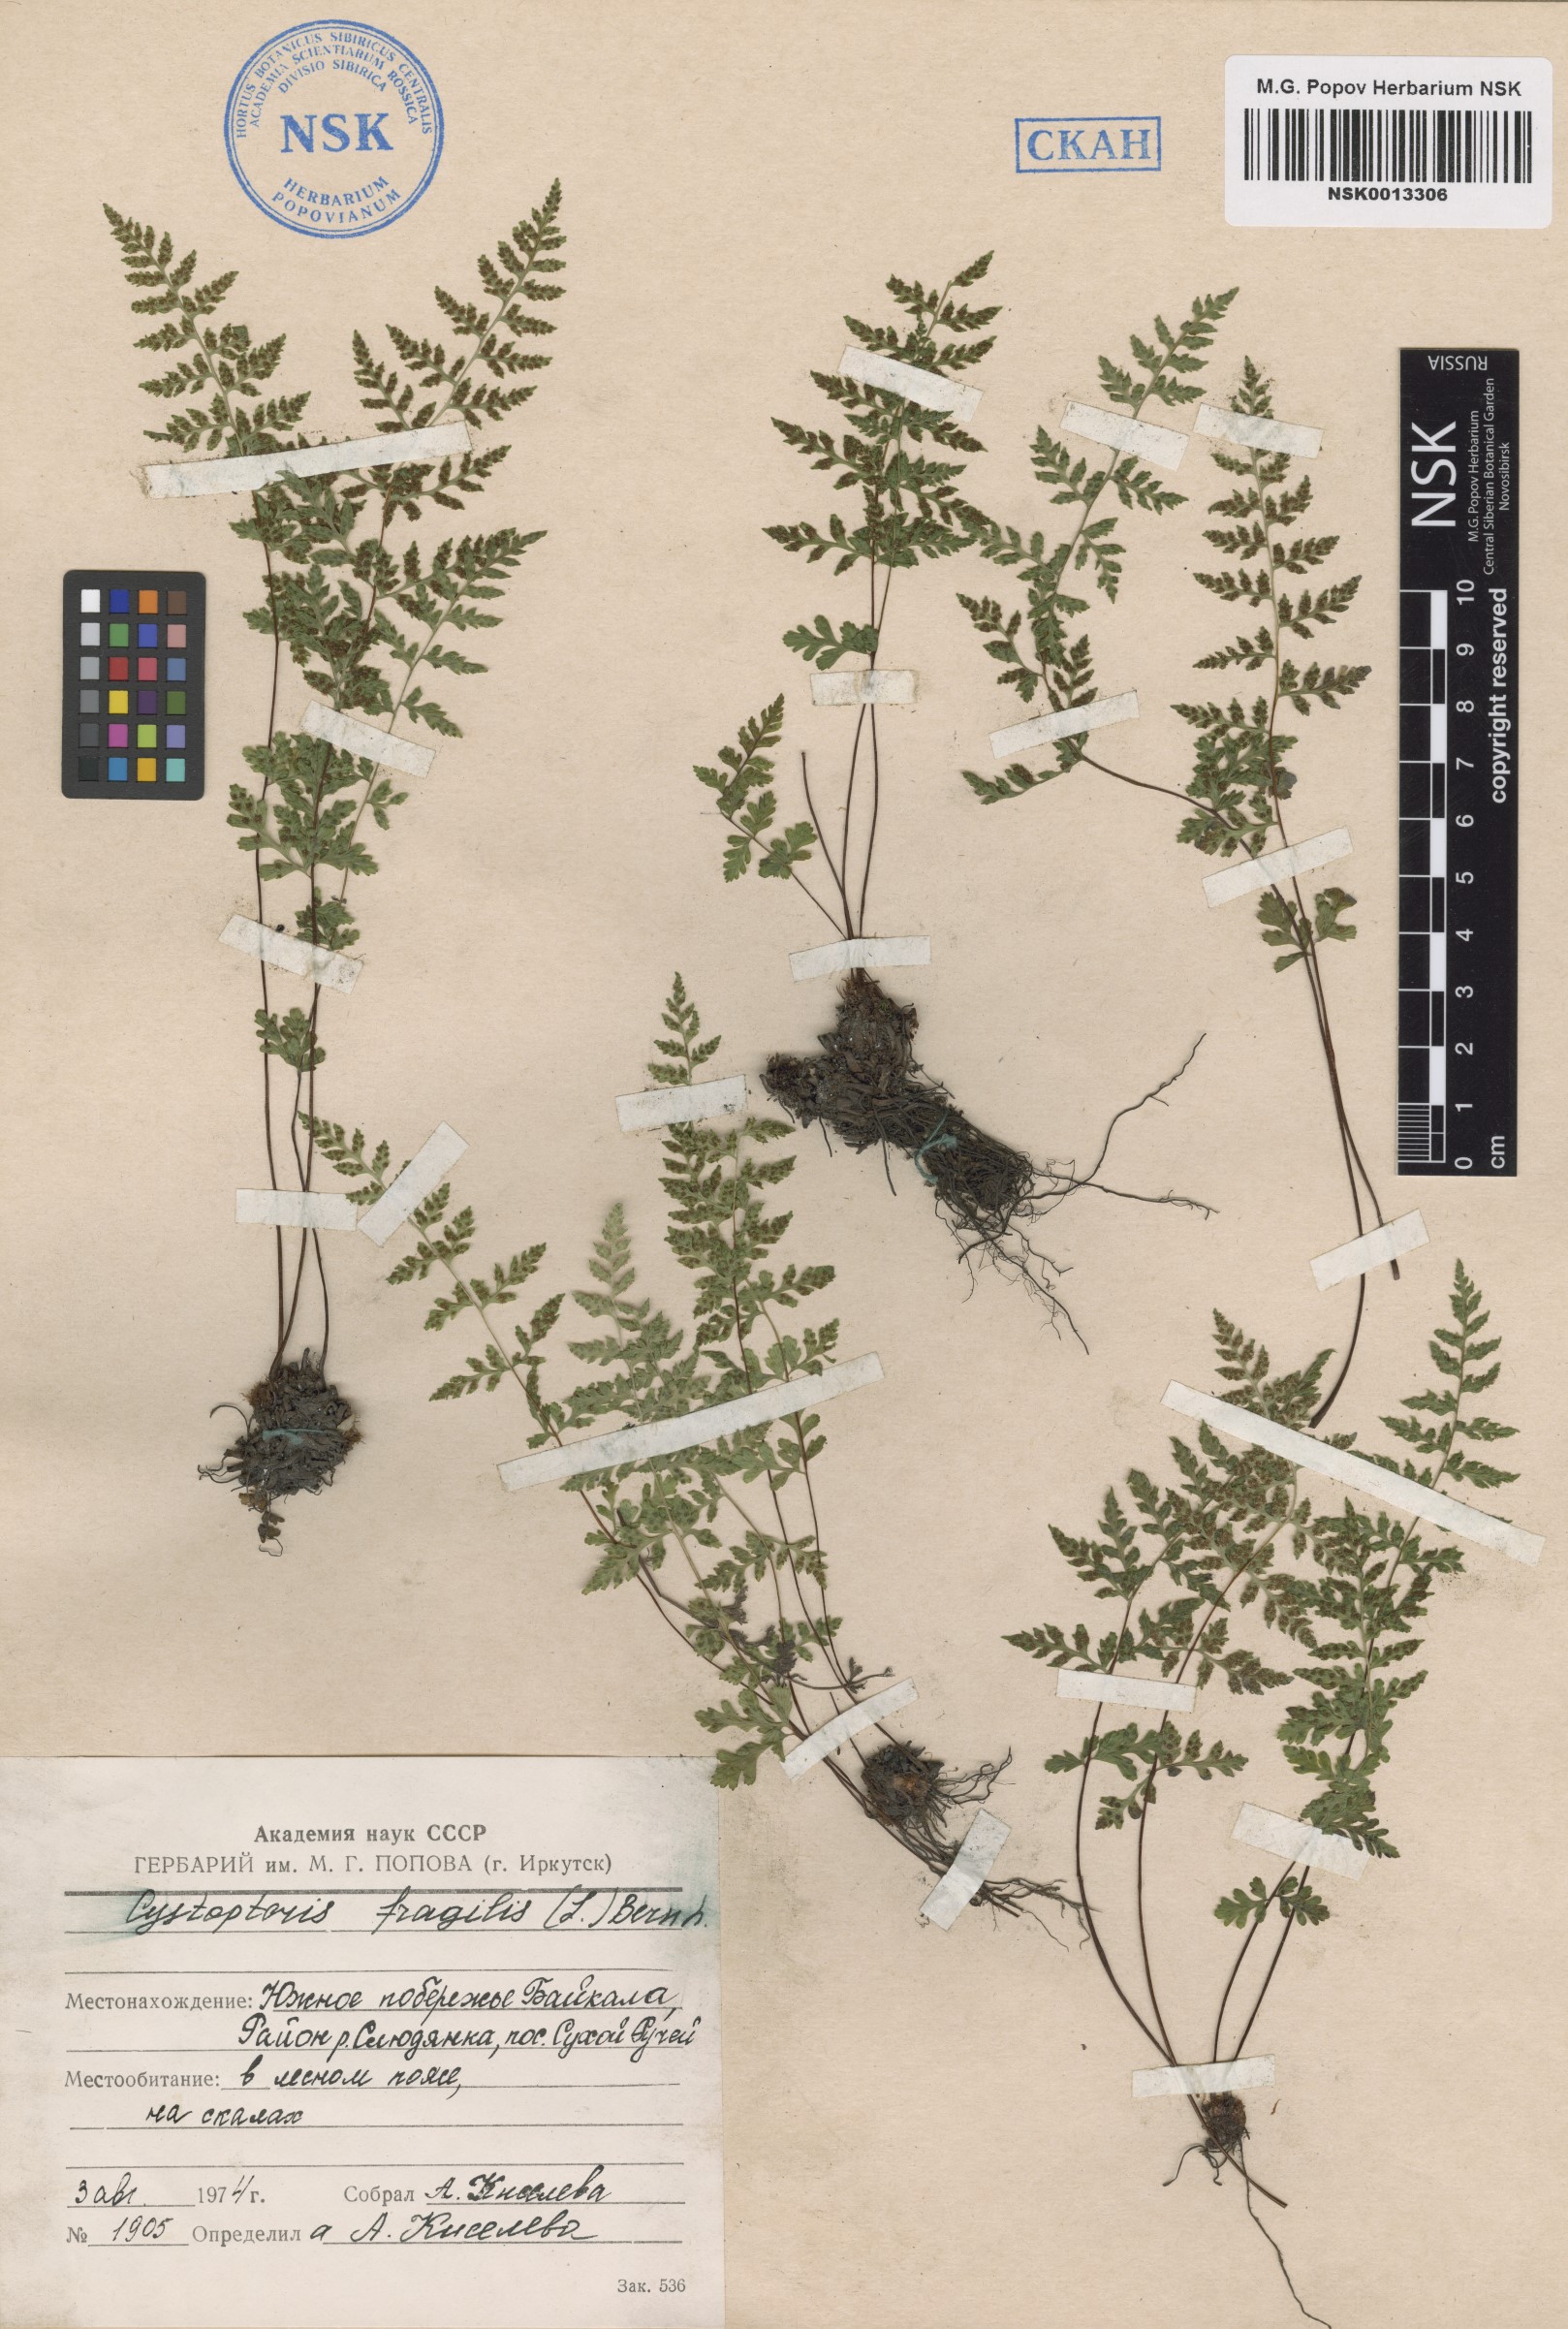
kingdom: Plantae
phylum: Tracheophyta
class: Polypodiopsida
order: Polypodiales
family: Cystopteridaceae
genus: Cystopteris
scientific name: Cystopteris fragilis
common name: Brittle bladder fern
